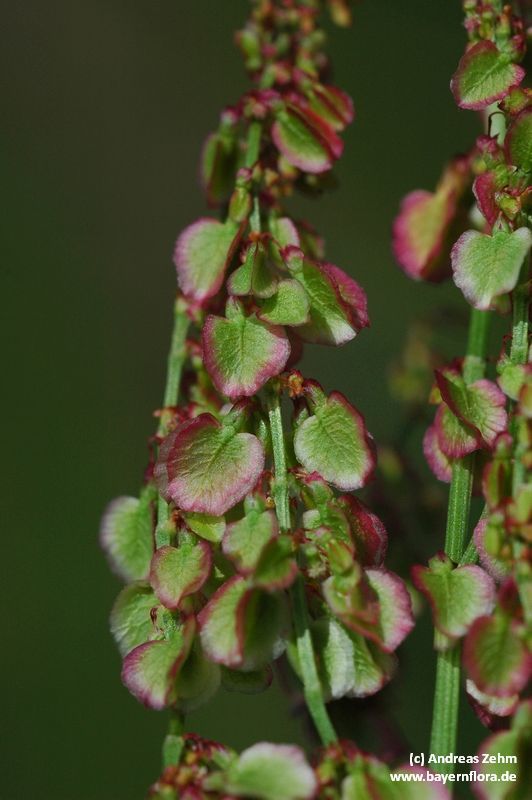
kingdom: Plantae
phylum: Tracheophyta
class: Magnoliopsida
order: Caryophyllales
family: Polygonaceae
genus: Rumex
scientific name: Rumex acetosa
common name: Garden sorrel
